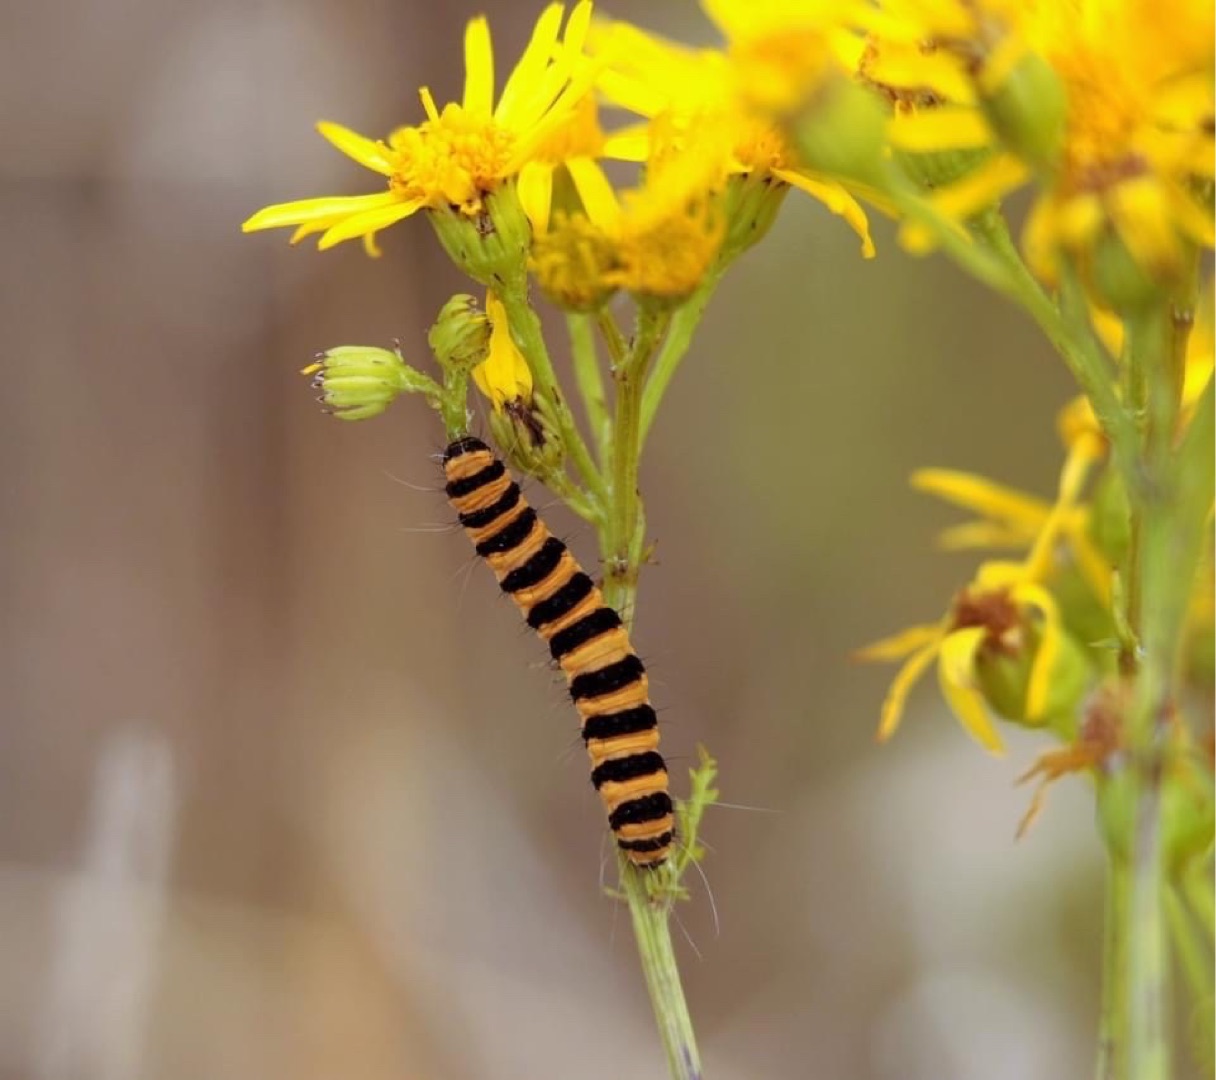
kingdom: Animalia
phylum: Arthropoda
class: Insecta
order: Lepidoptera
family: Erebidae
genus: Tyria
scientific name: Tyria jacobaeae
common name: Blodplet
